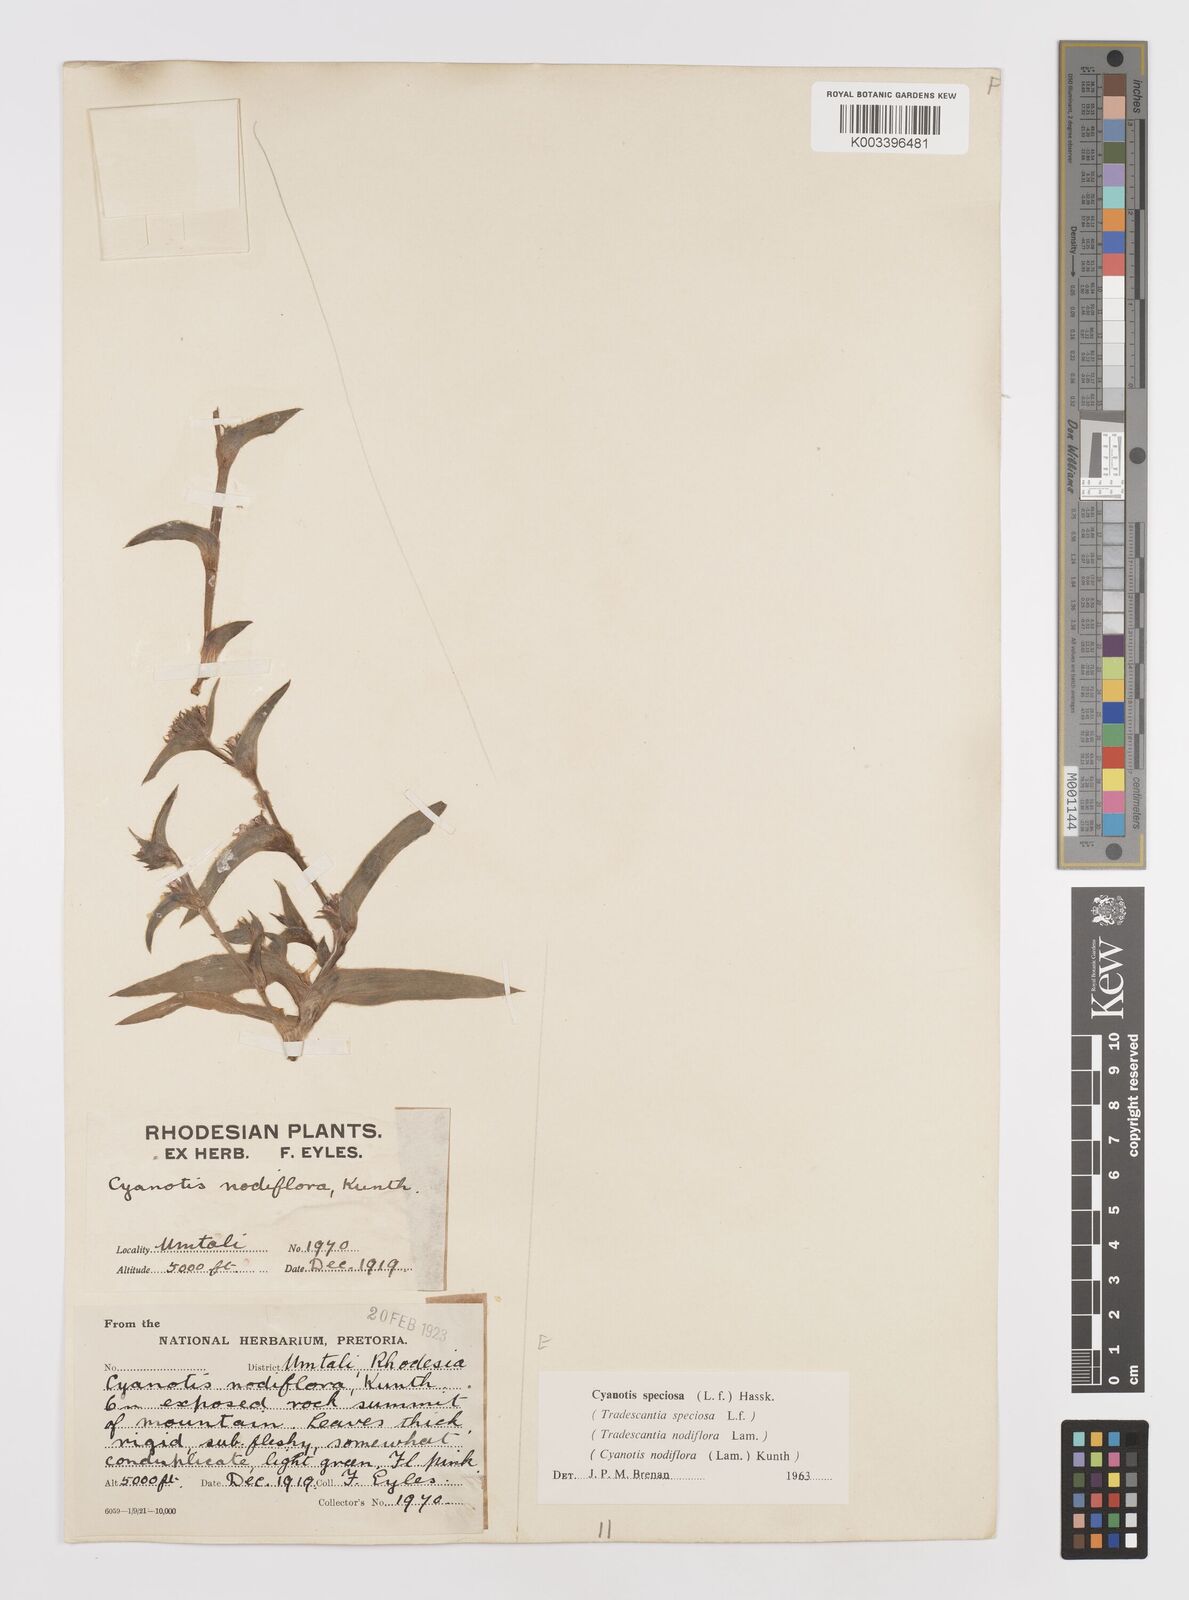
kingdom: Plantae
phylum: Tracheophyta
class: Liliopsida
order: Commelinales
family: Commelinaceae
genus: Cyanotis
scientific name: Cyanotis speciosa
